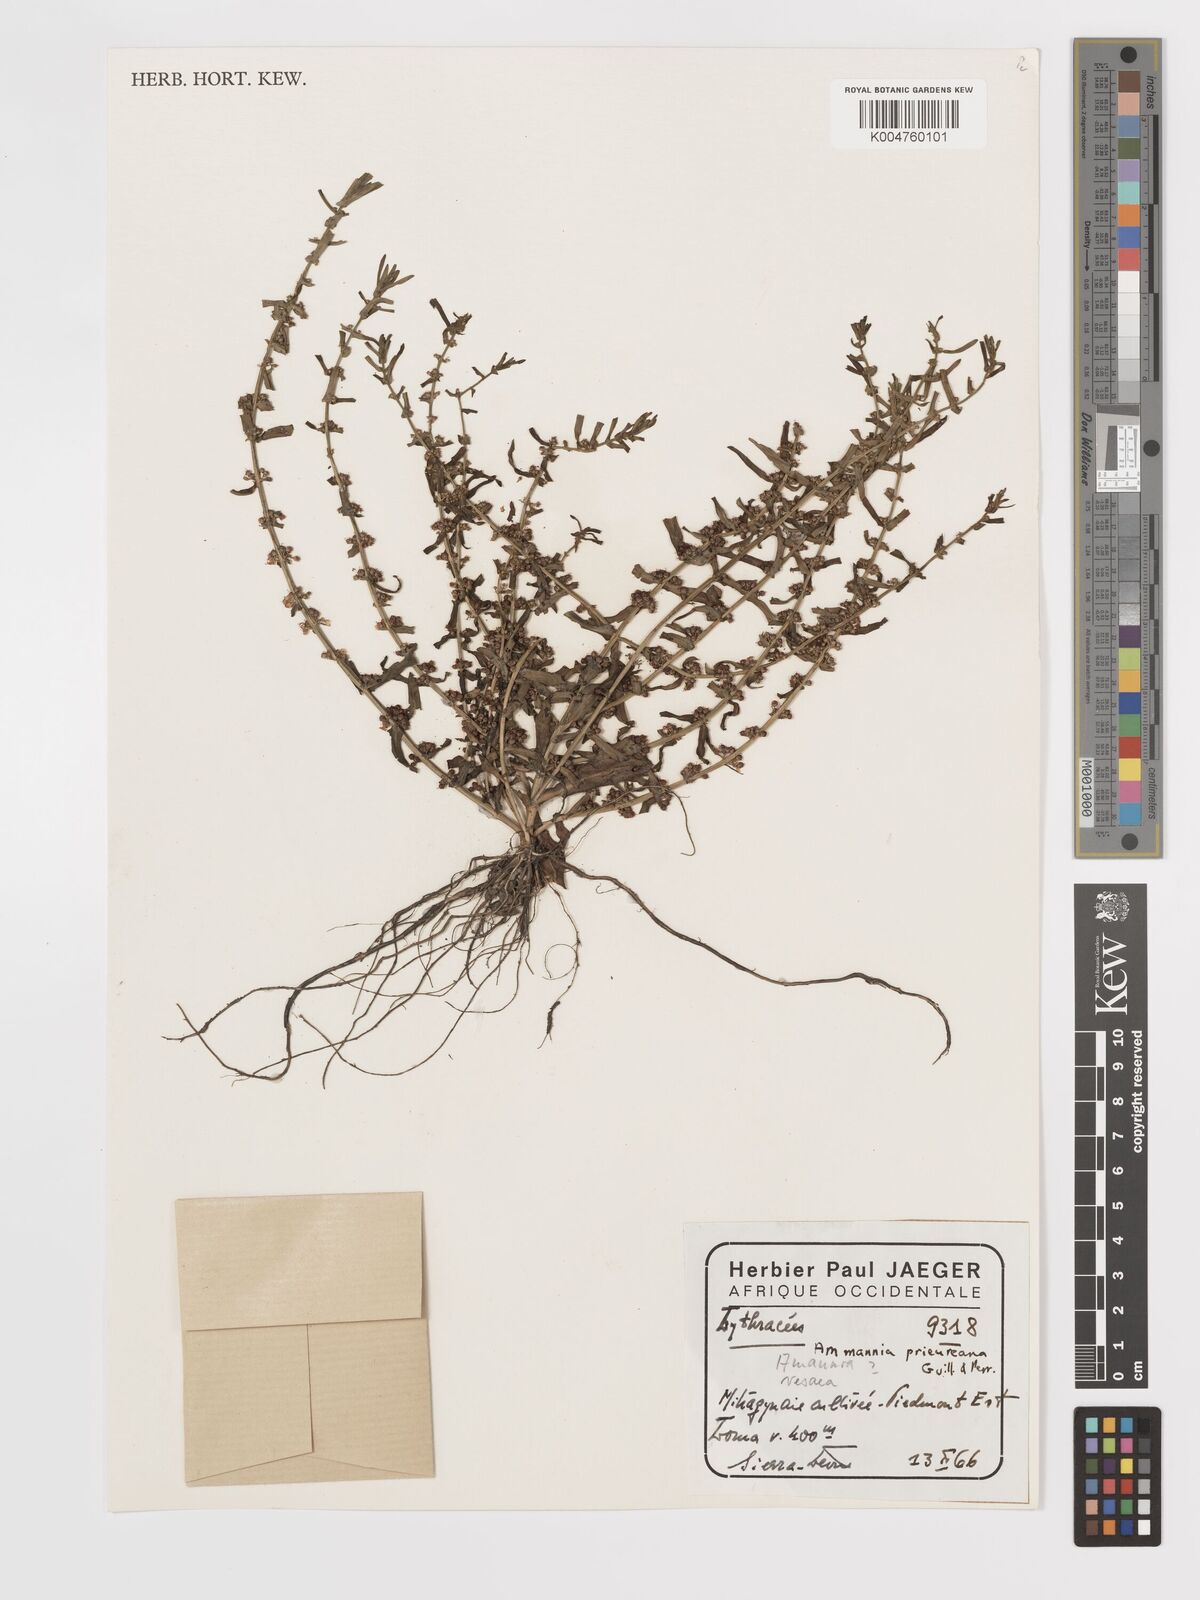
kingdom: Plantae
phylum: Tracheophyta
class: Magnoliopsida
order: Myrtales
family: Lythraceae
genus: Ammannia
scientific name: Ammannia prieuriana
